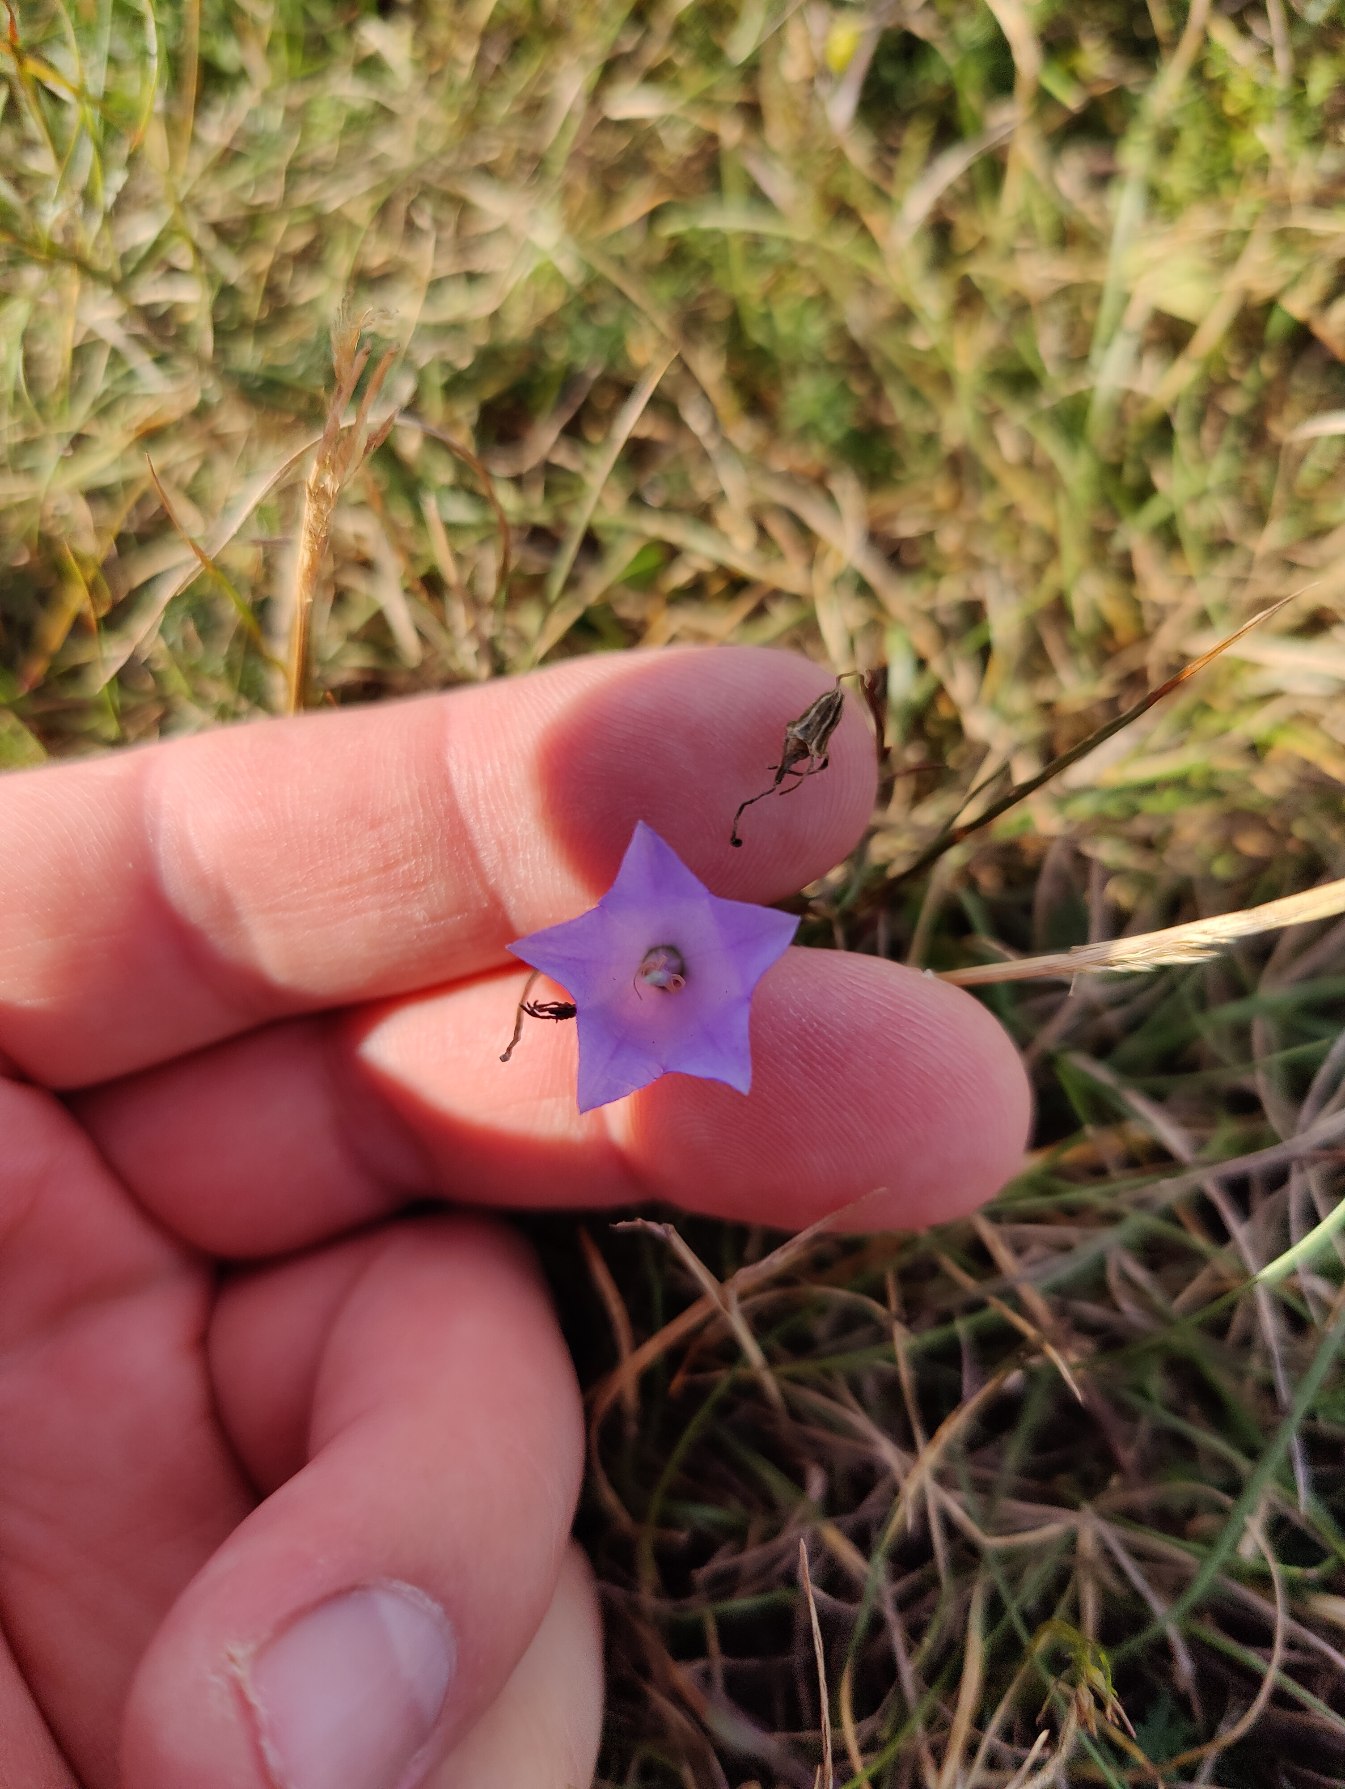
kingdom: Plantae
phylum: Tracheophyta
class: Magnoliopsida
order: Asterales
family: Campanulaceae
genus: Campanula
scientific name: Campanula rotundifolia
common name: Liden klokke
